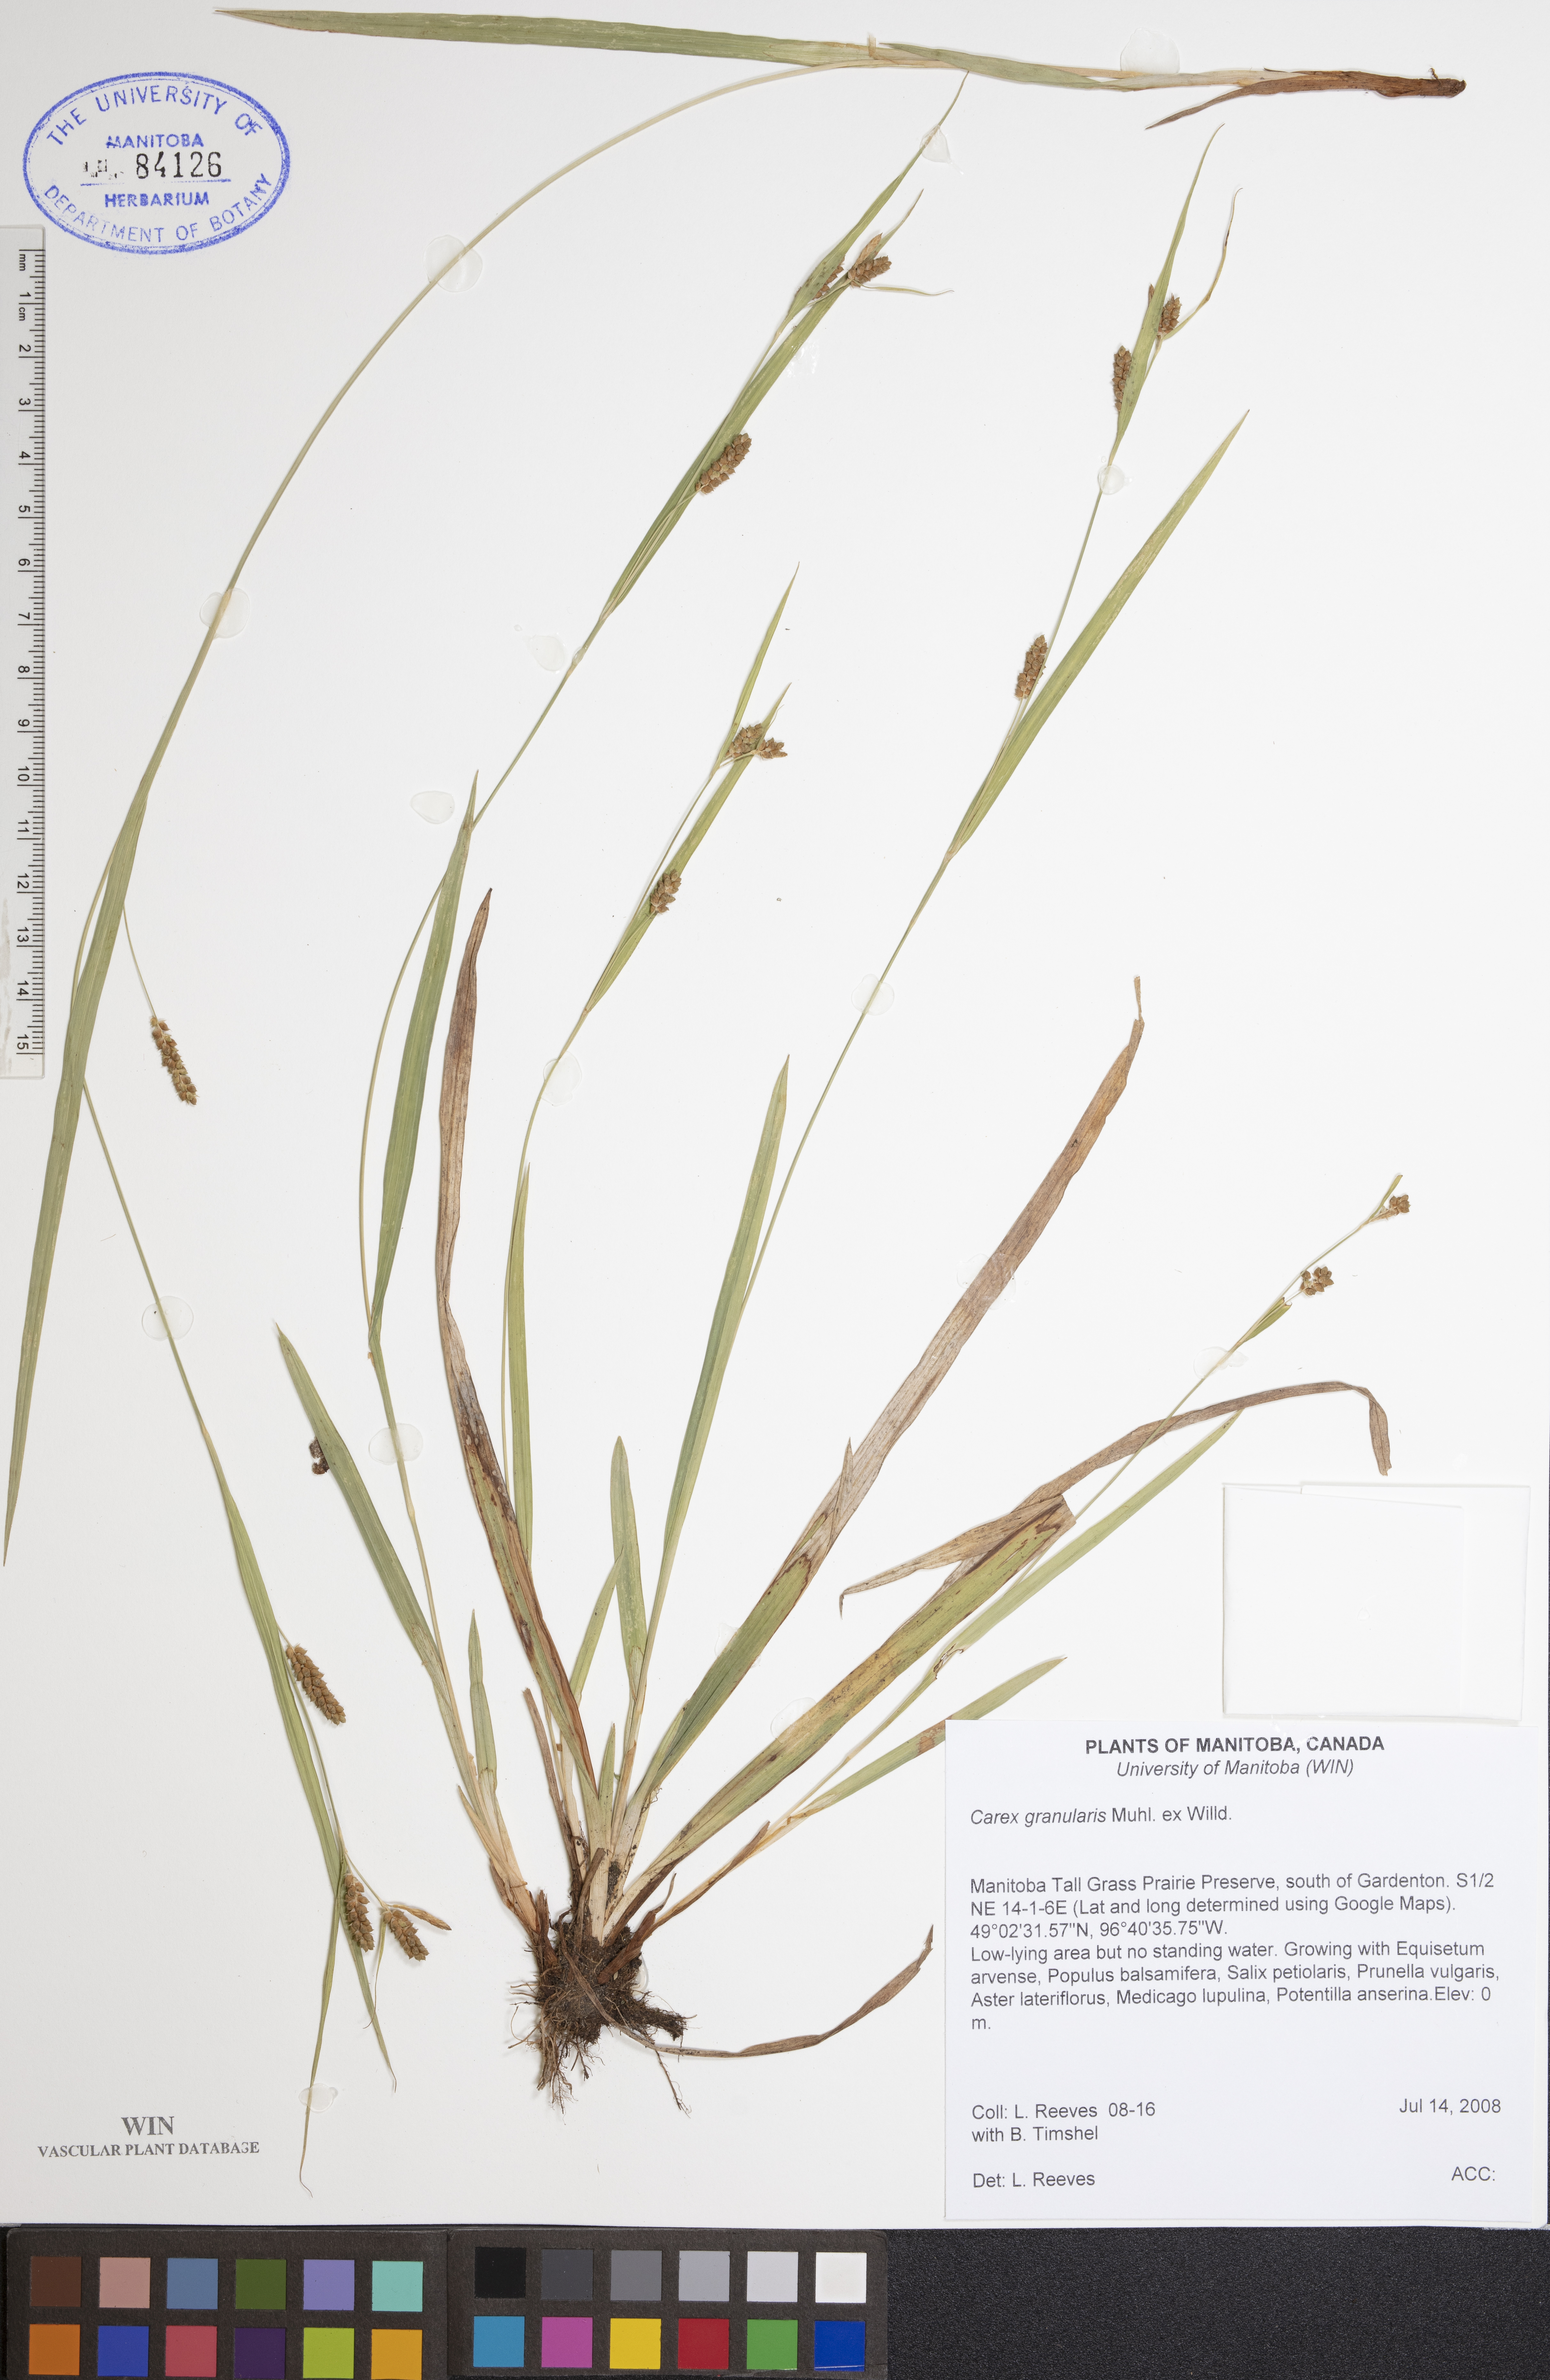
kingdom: Plantae
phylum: Tracheophyta
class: Liliopsida
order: Poales
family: Cyperaceae
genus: Carex
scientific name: Carex granularis
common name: Granular sedge
